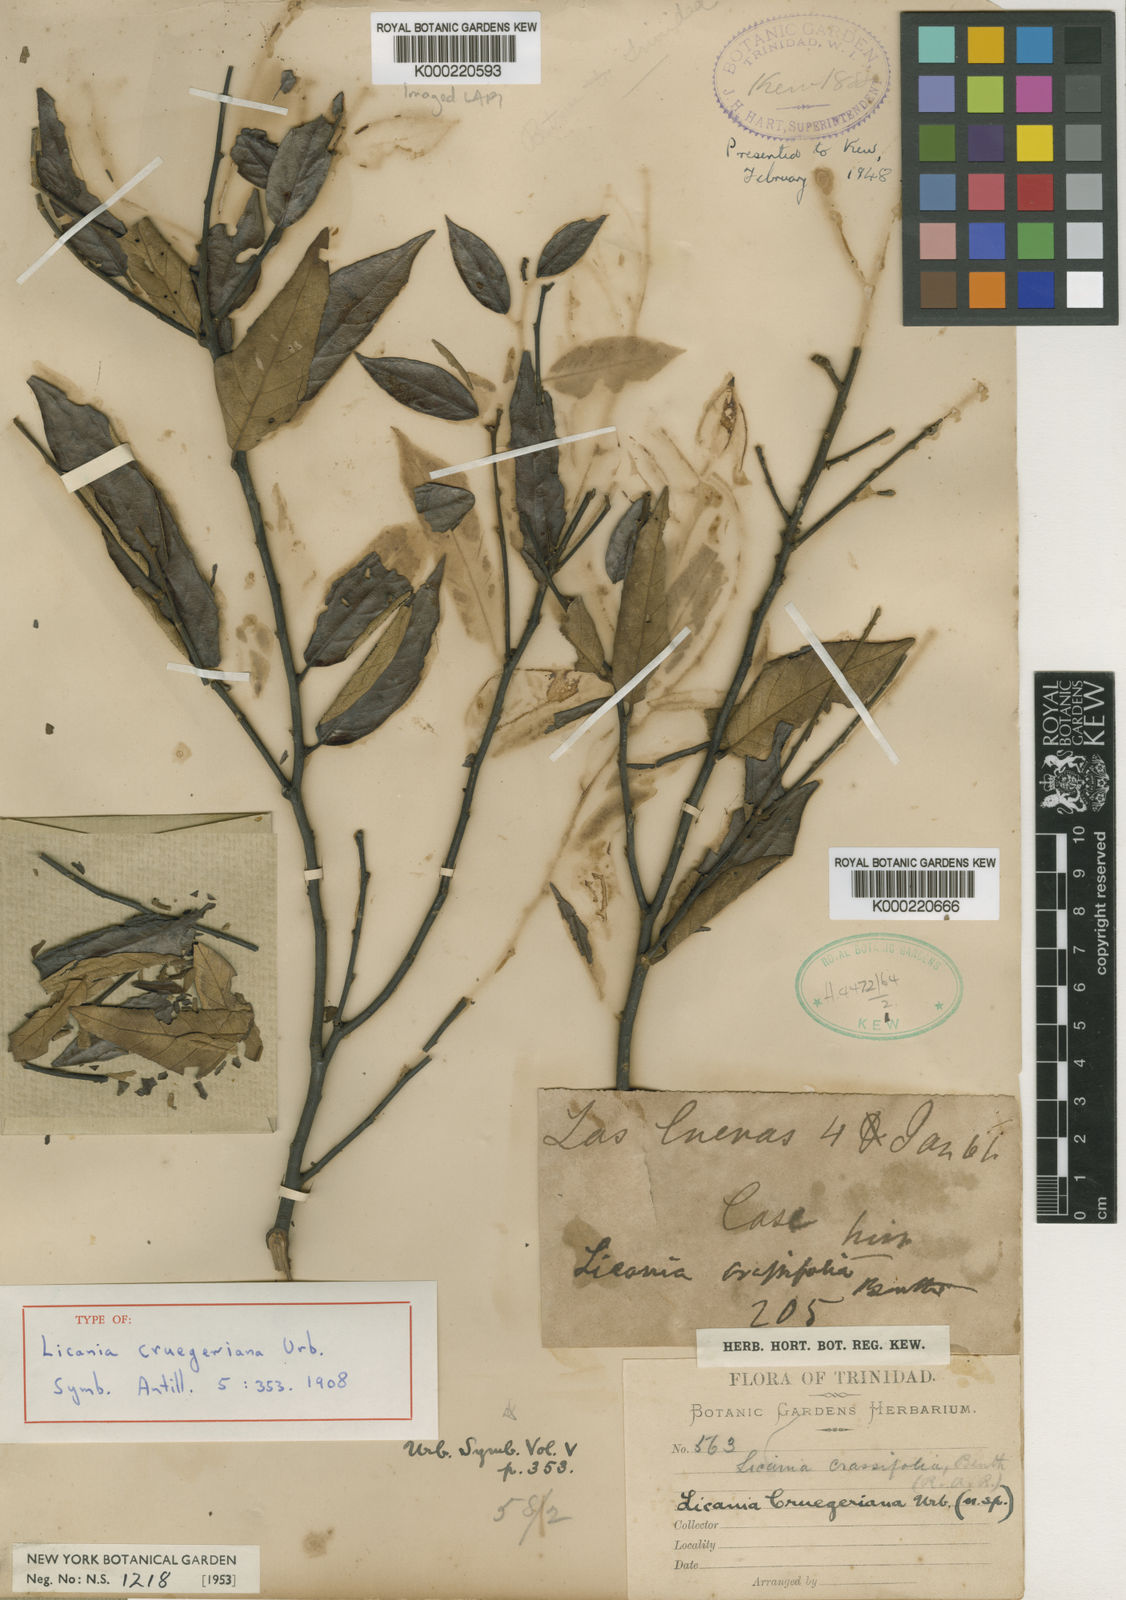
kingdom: Plantae
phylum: Tracheophyta
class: Magnoliopsida
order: Malpighiales
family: Chrysobalanaceae
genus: Licania
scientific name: Licania cruegeriana
